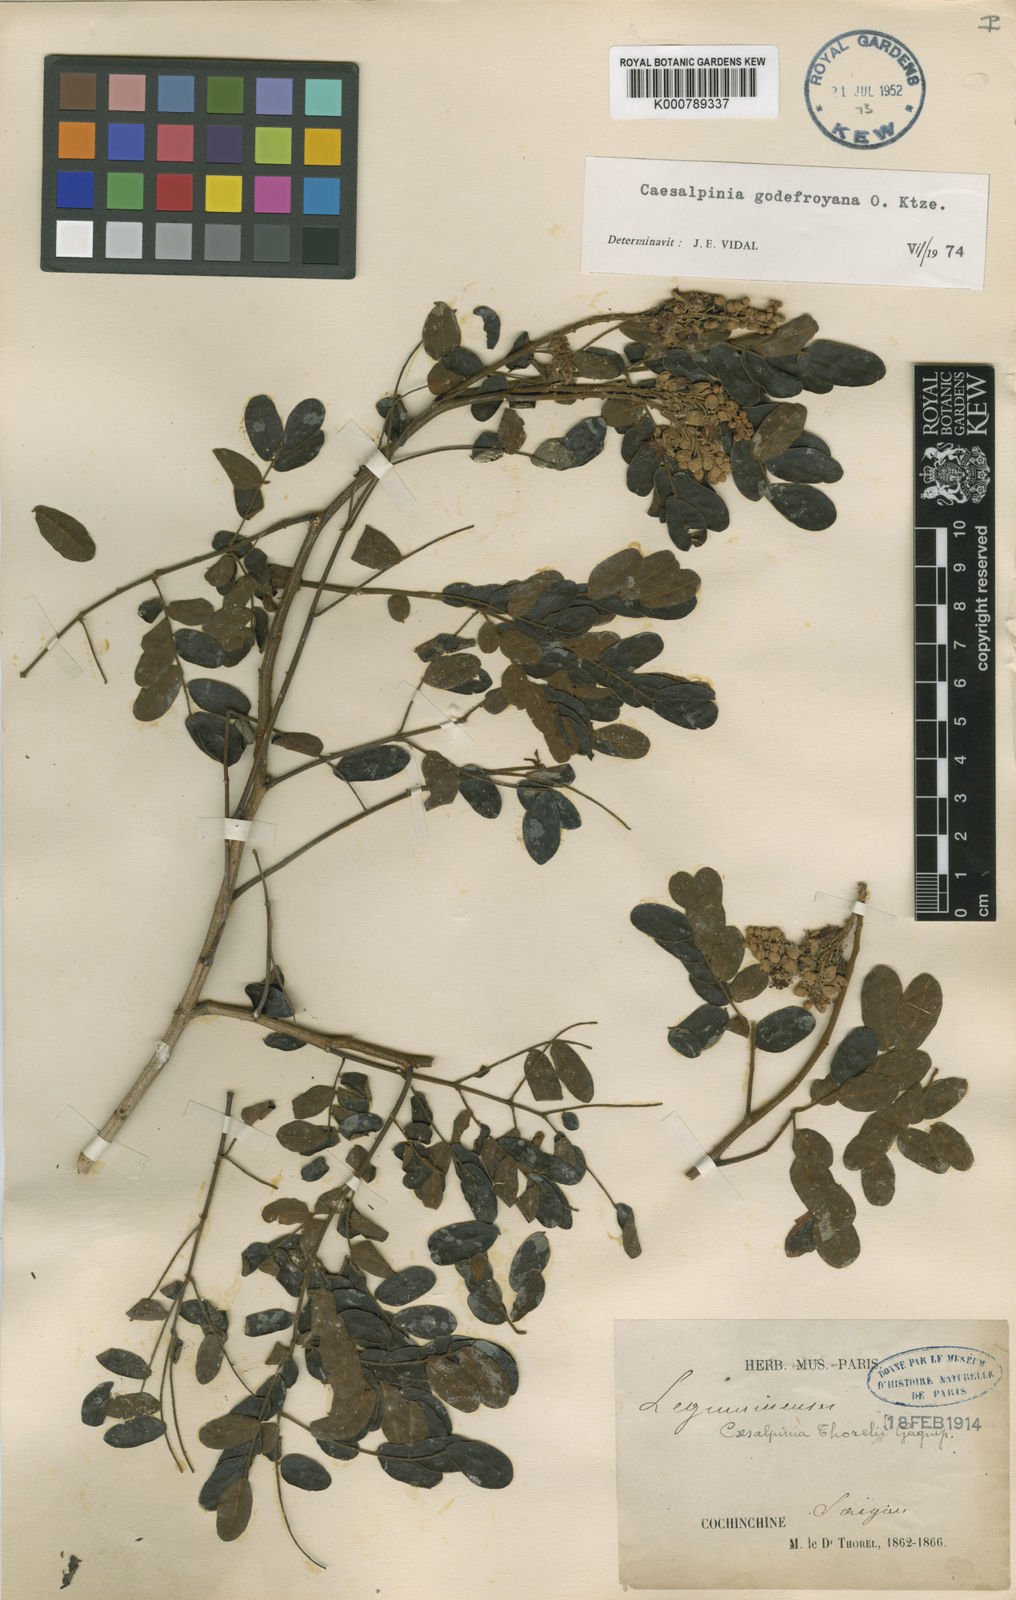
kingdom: Plantae
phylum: Tracheophyta
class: Magnoliopsida
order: Fabales
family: Fabaceae
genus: Biancaea
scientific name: Biancaea godefroyana
